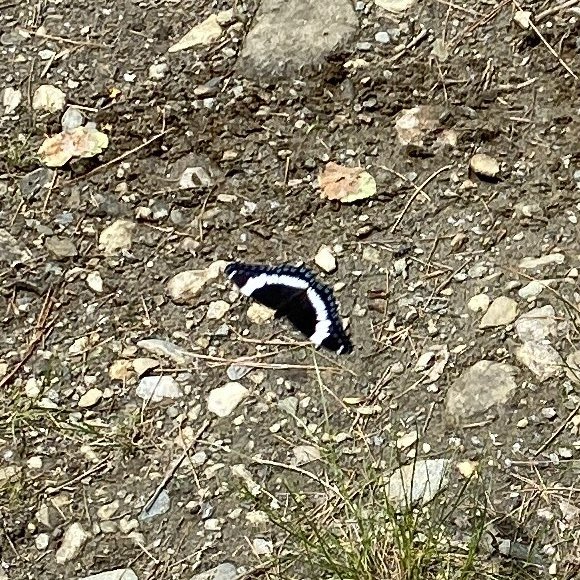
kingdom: Animalia
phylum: Arthropoda
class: Insecta
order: Lepidoptera
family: Nymphalidae
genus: Limenitis
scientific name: Limenitis arthemis
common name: Red-spotted Admiral
